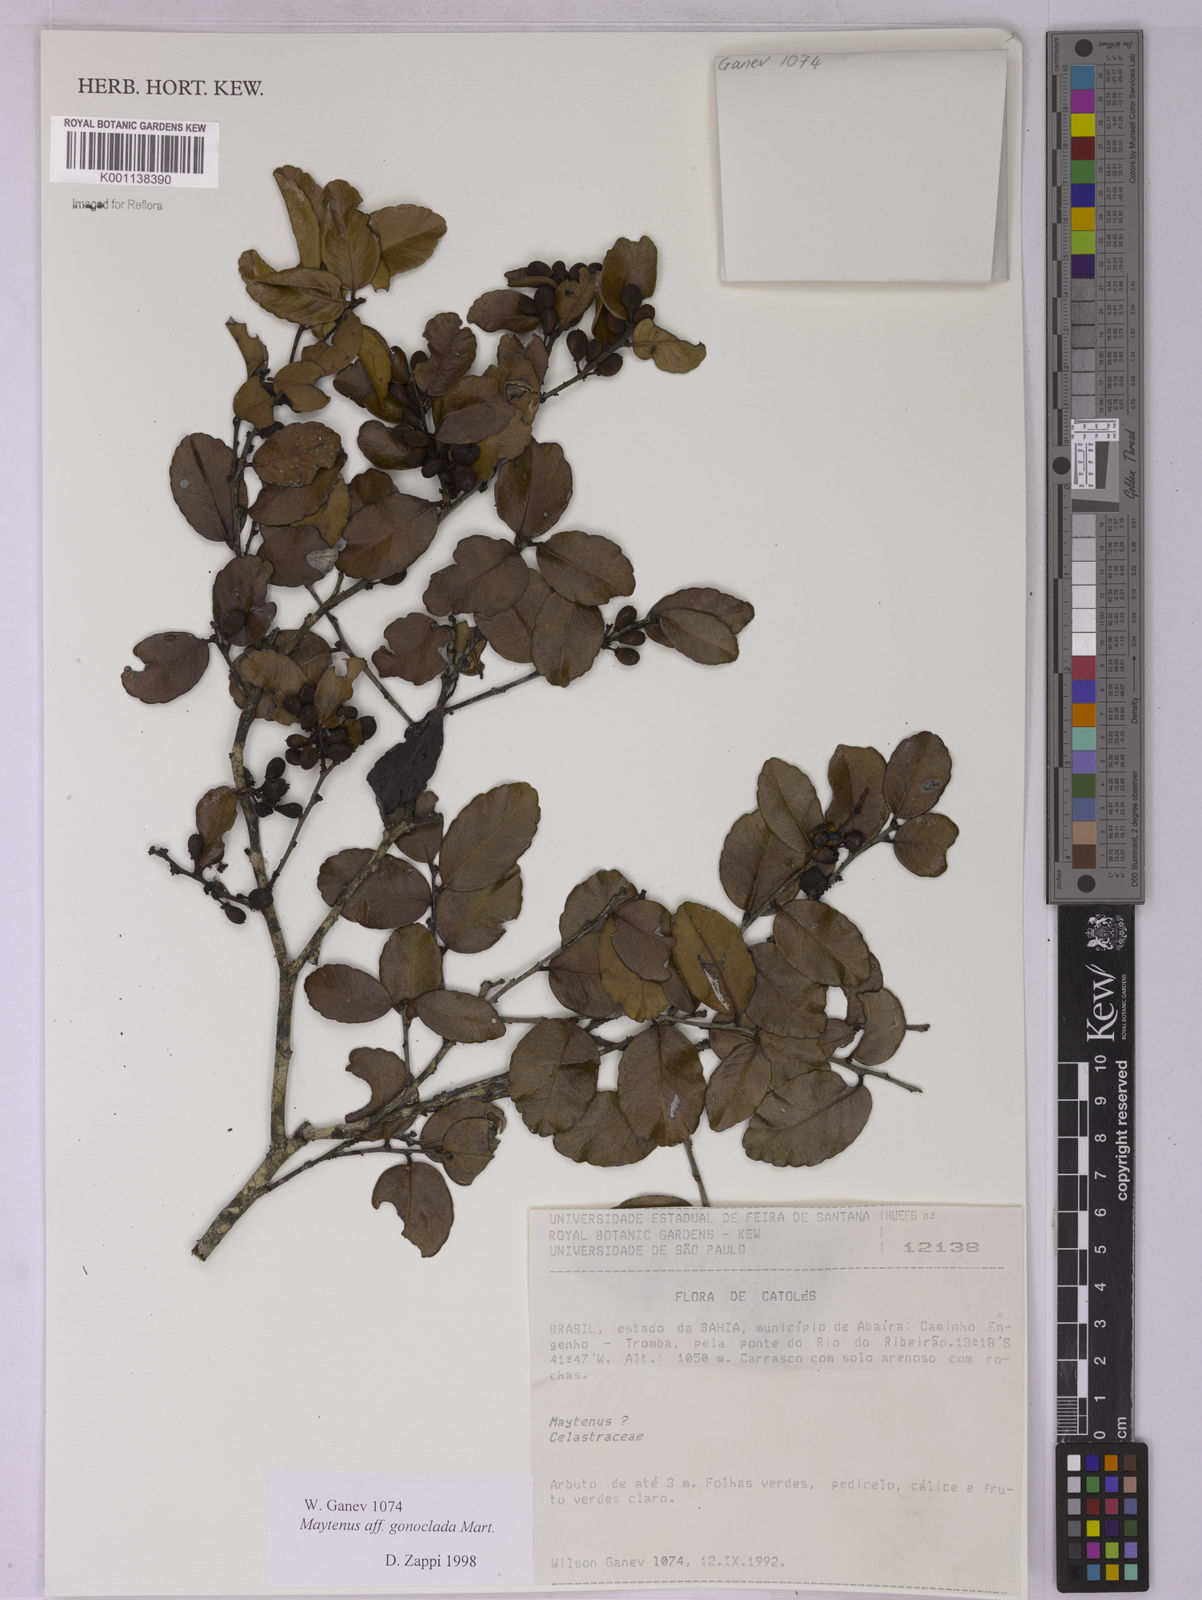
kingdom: Plantae
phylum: Tracheophyta
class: Magnoliopsida
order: Celastrales
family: Celastraceae
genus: Monteverdia
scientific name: Monteverdia gonoclada
